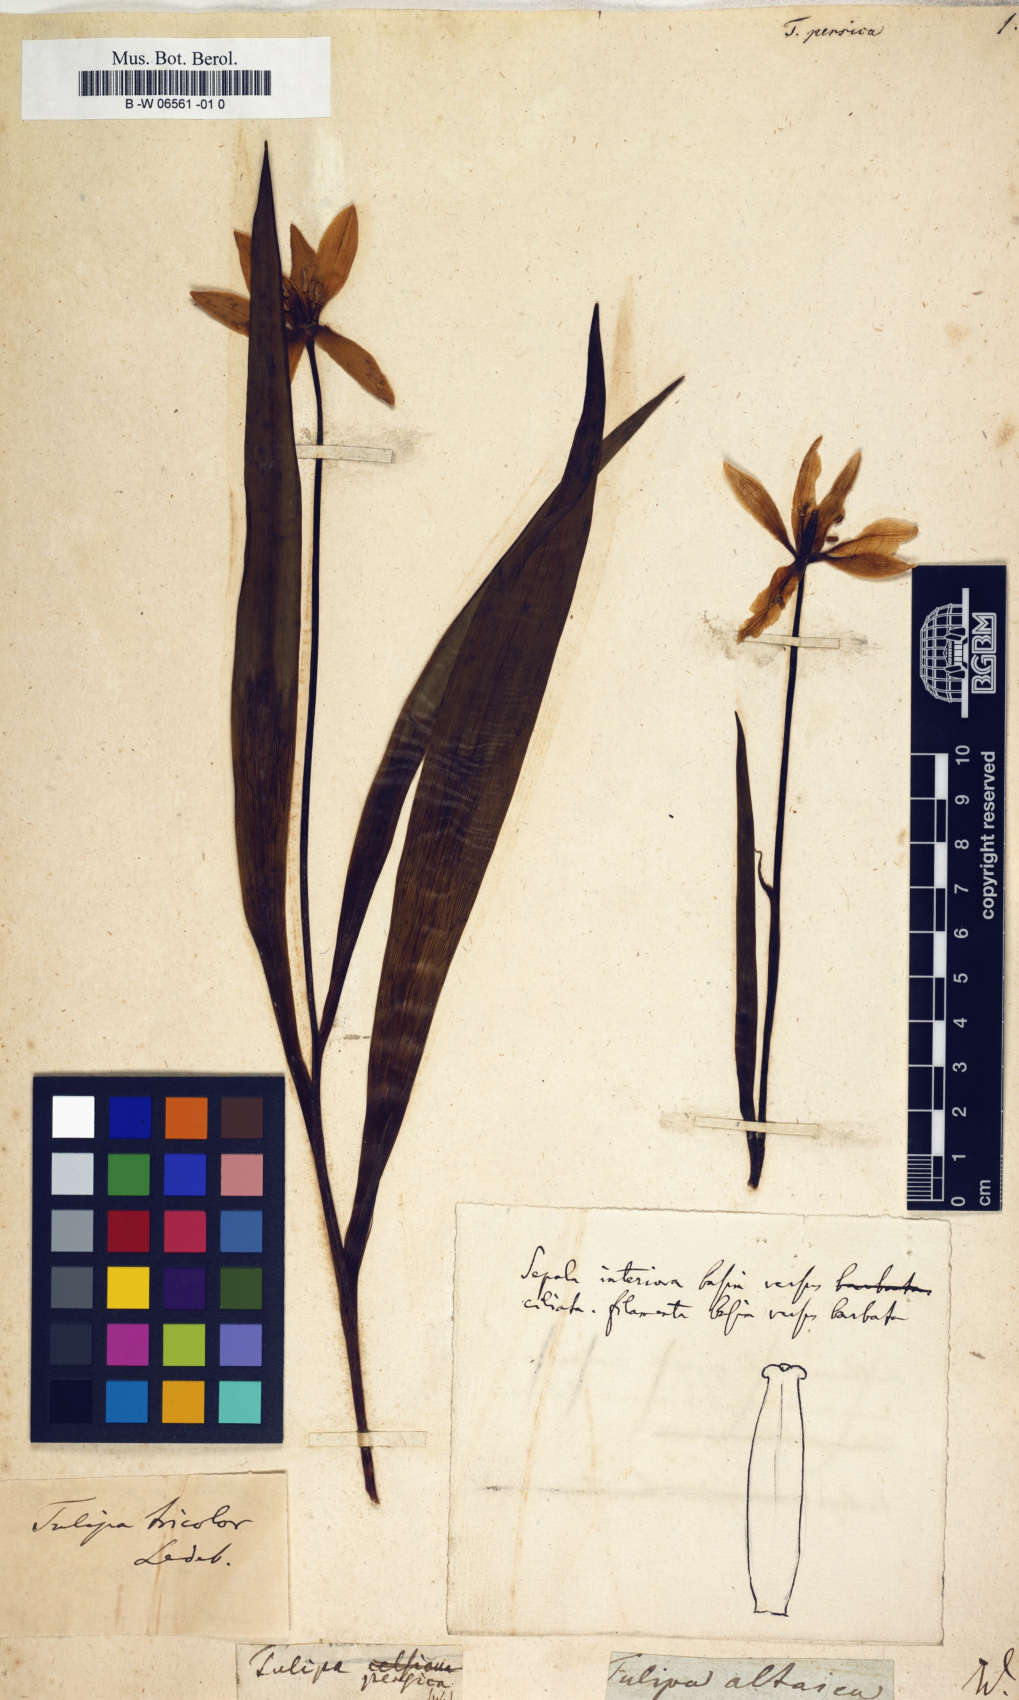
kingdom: Plantae
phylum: Tracheophyta
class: Liliopsida
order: Liliales
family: Liliaceae
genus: Tulipa
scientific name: Tulipa persica
